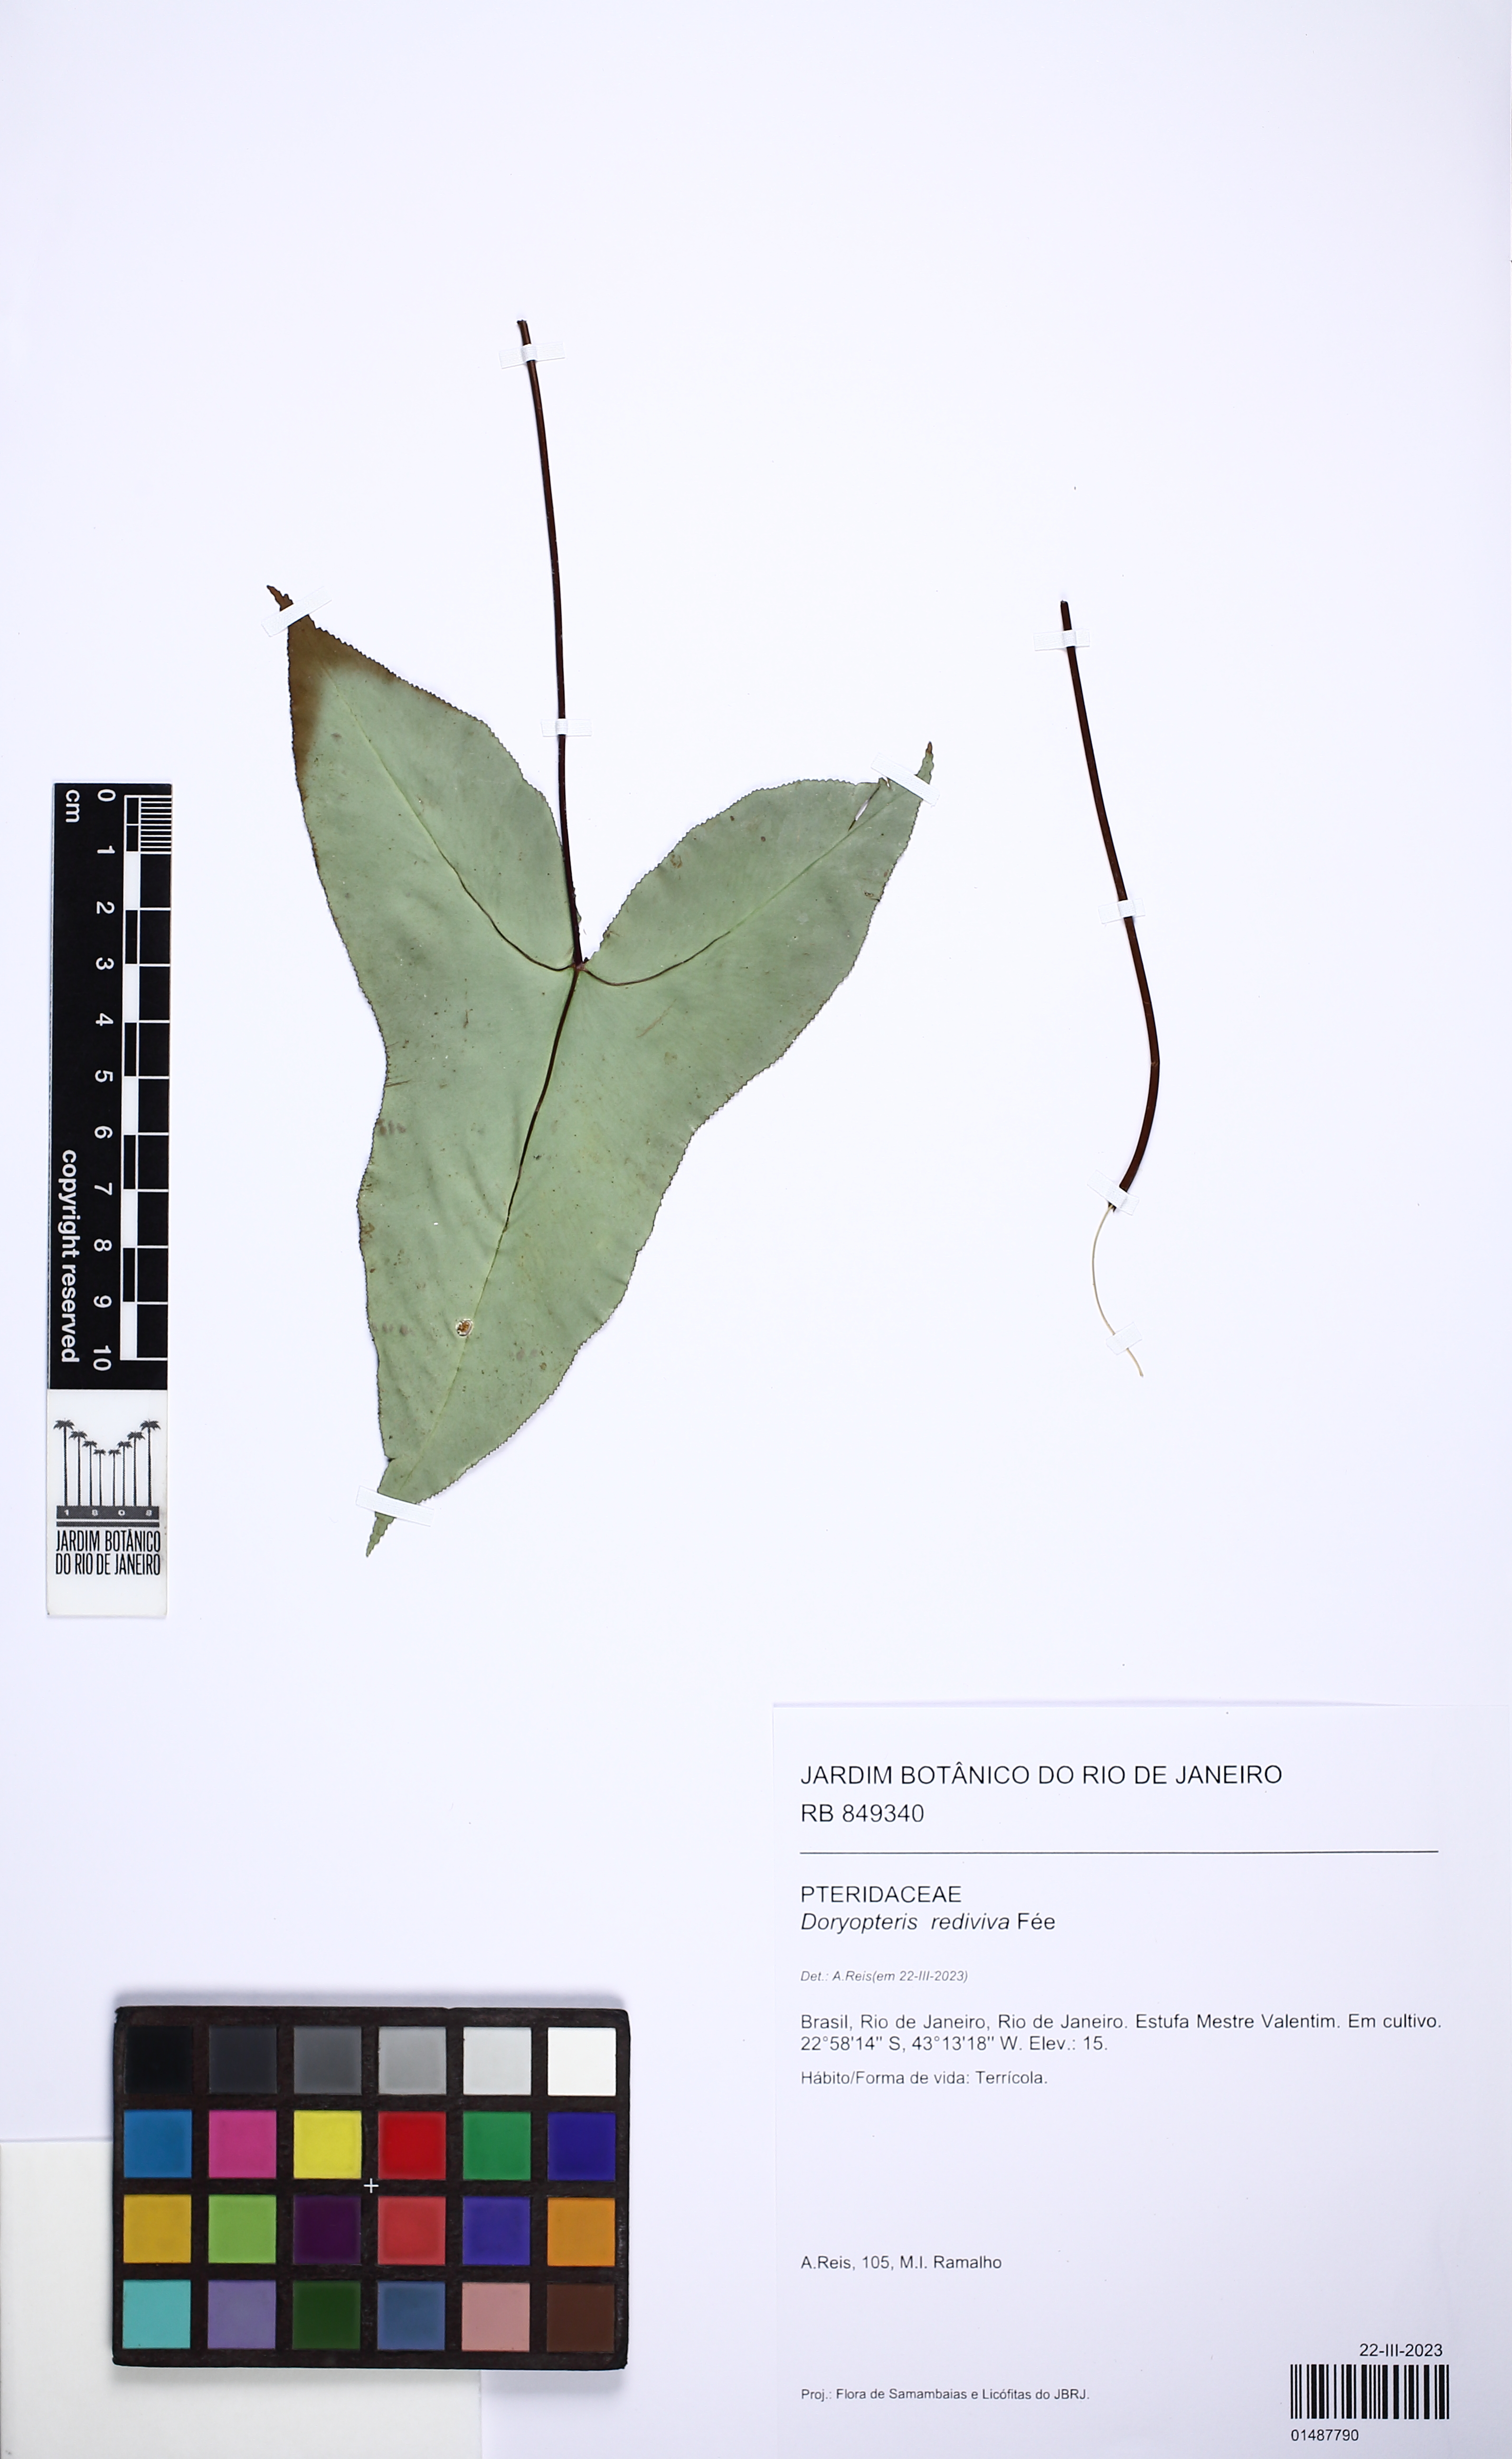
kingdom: Plantae
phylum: Tracheophyta
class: Polypodiopsida
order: Polypodiales
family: Pteridaceae
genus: Doryopteris
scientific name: Doryopteris rediviva
